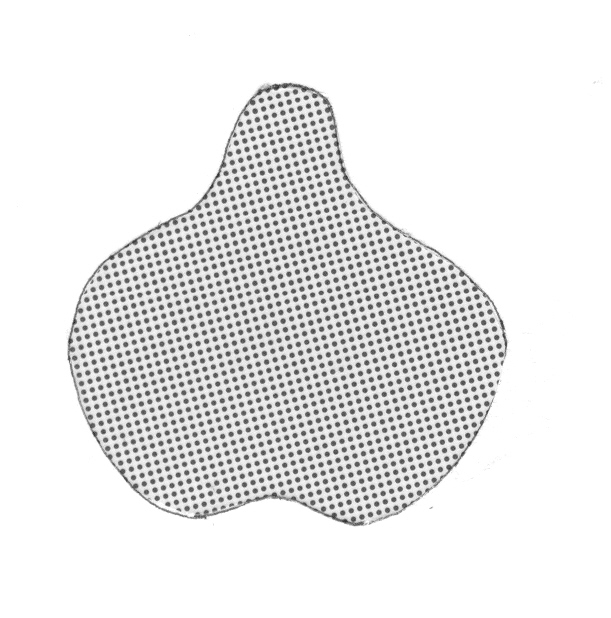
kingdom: Animalia
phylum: Chordata
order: Perciformes
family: Serranidae
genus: Odontanthias
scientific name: Odontanthias grahami
